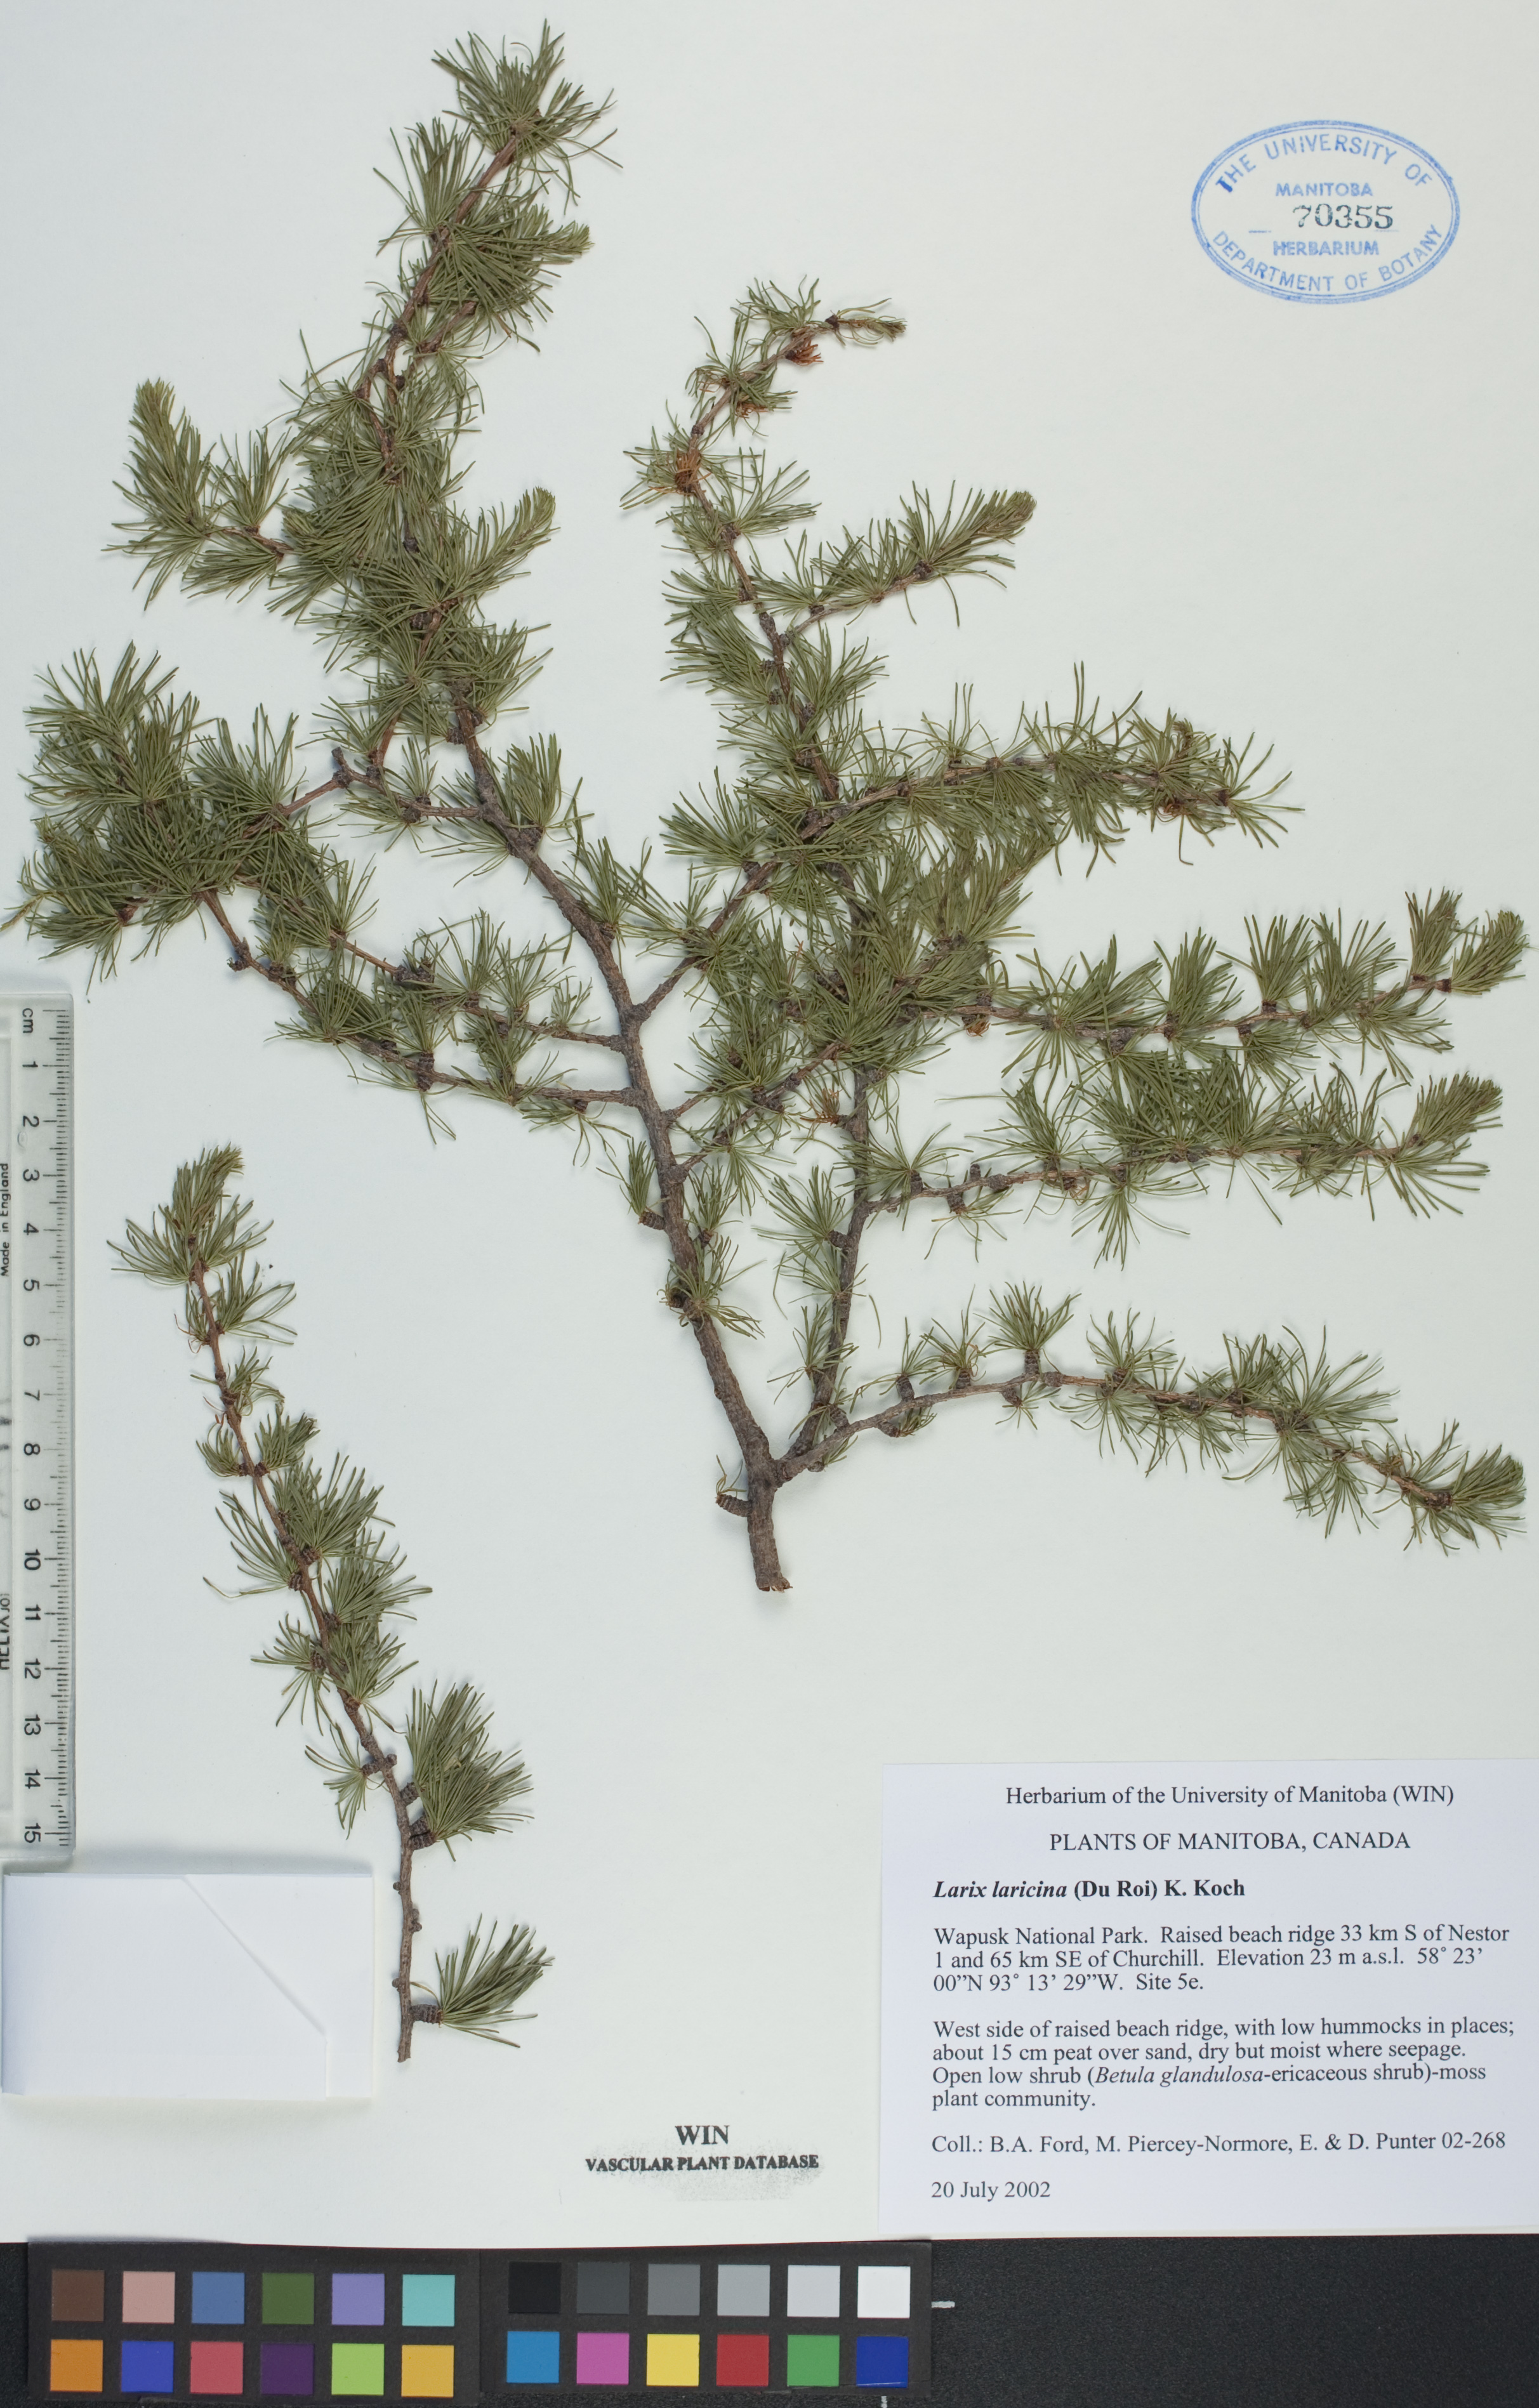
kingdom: Plantae
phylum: Tracheophyta
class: Pinopsida
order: Pinales
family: Pinaceae
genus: Larix
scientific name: Larix laricina
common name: American larch
